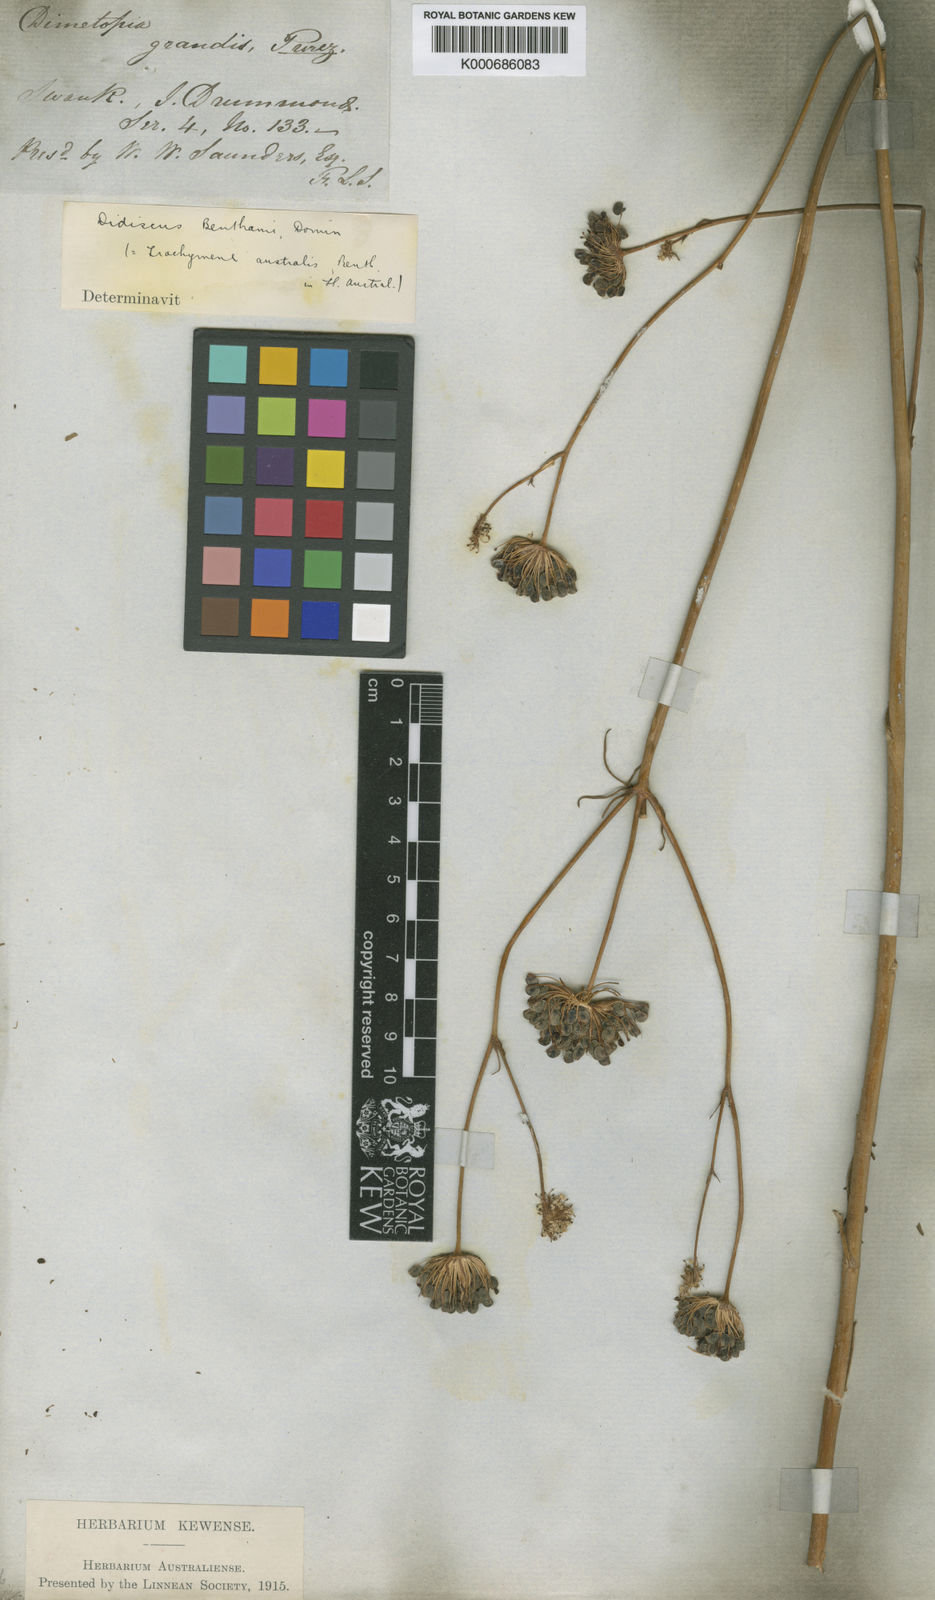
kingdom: Plantae
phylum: Tracheophyta
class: Magnoliopsida
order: Apiales
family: Araliaceae
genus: Trachymene
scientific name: Trachymene anisocarpa
